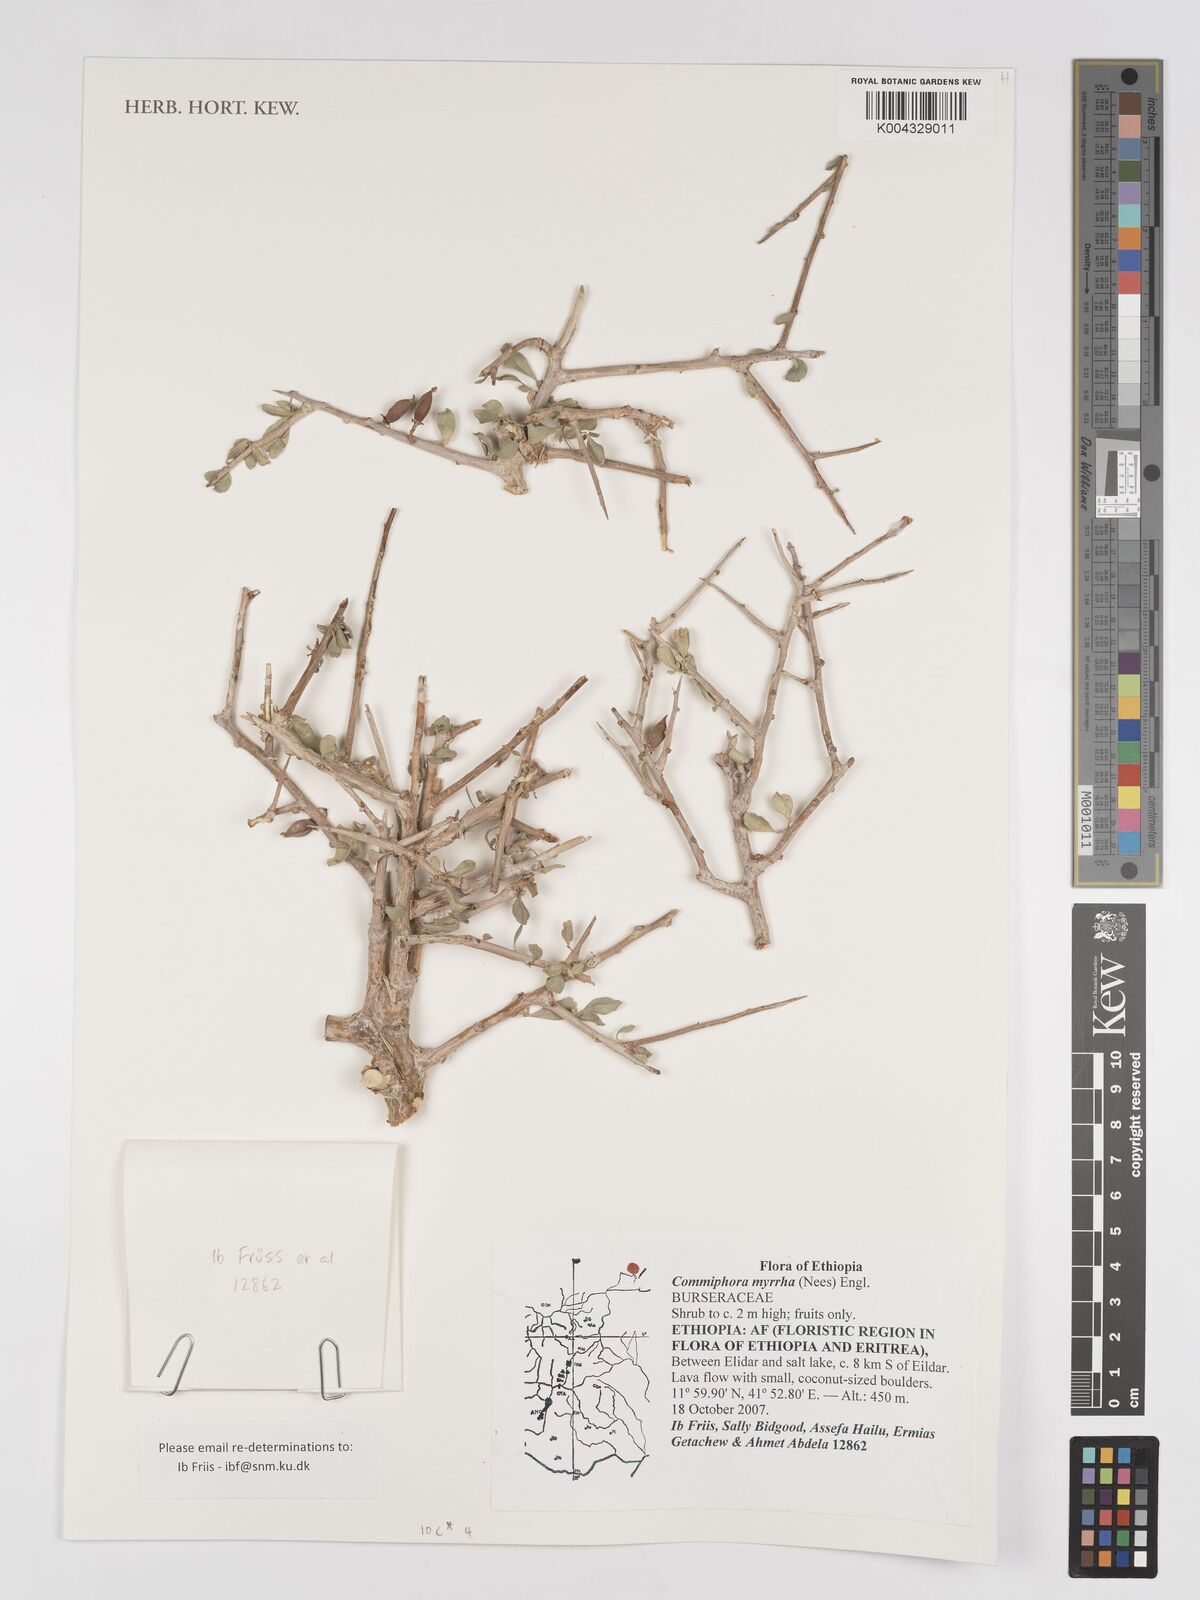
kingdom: Plantae
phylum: Tracheophyta
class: Magnoliopsida
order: Sapindales
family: Burseraceae
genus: Commiphora
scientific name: Commiphora myrrha
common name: African myrrh
